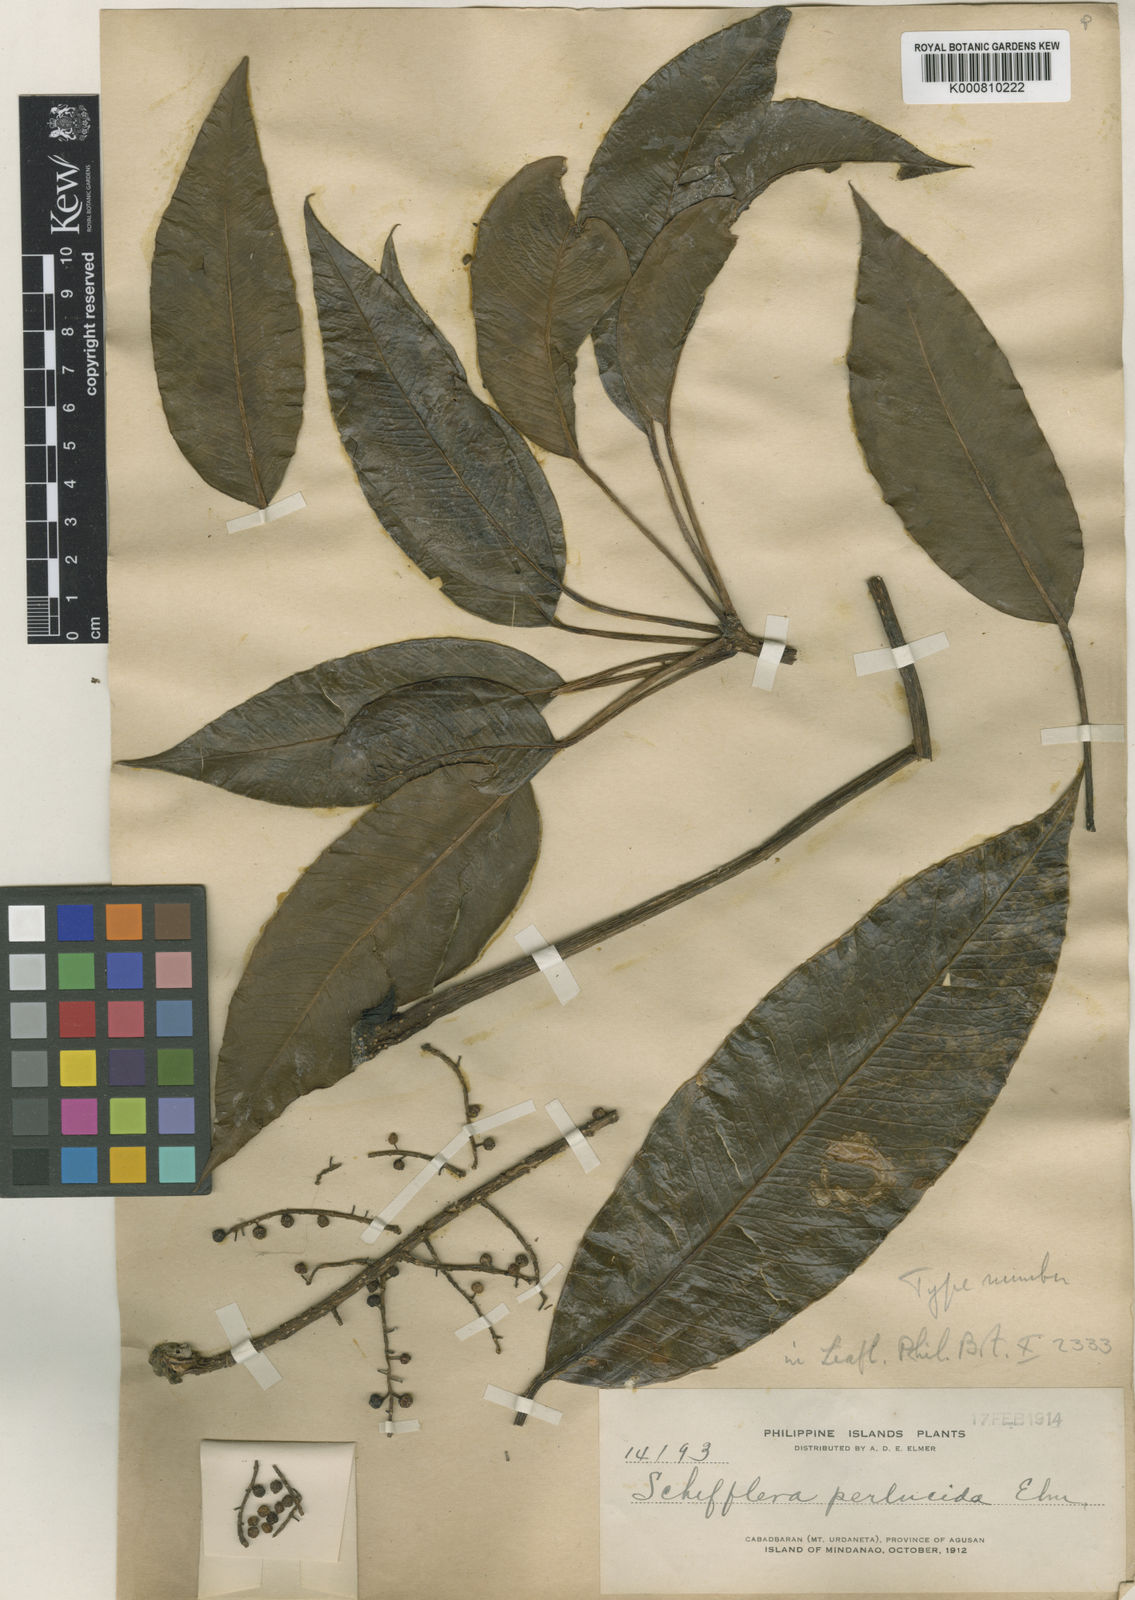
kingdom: Plantae
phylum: Tracheophyta
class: Magnoliopsida
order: Apiales
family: Araliaceae
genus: Heptapleurum
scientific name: Heptapleurum multiramosum
